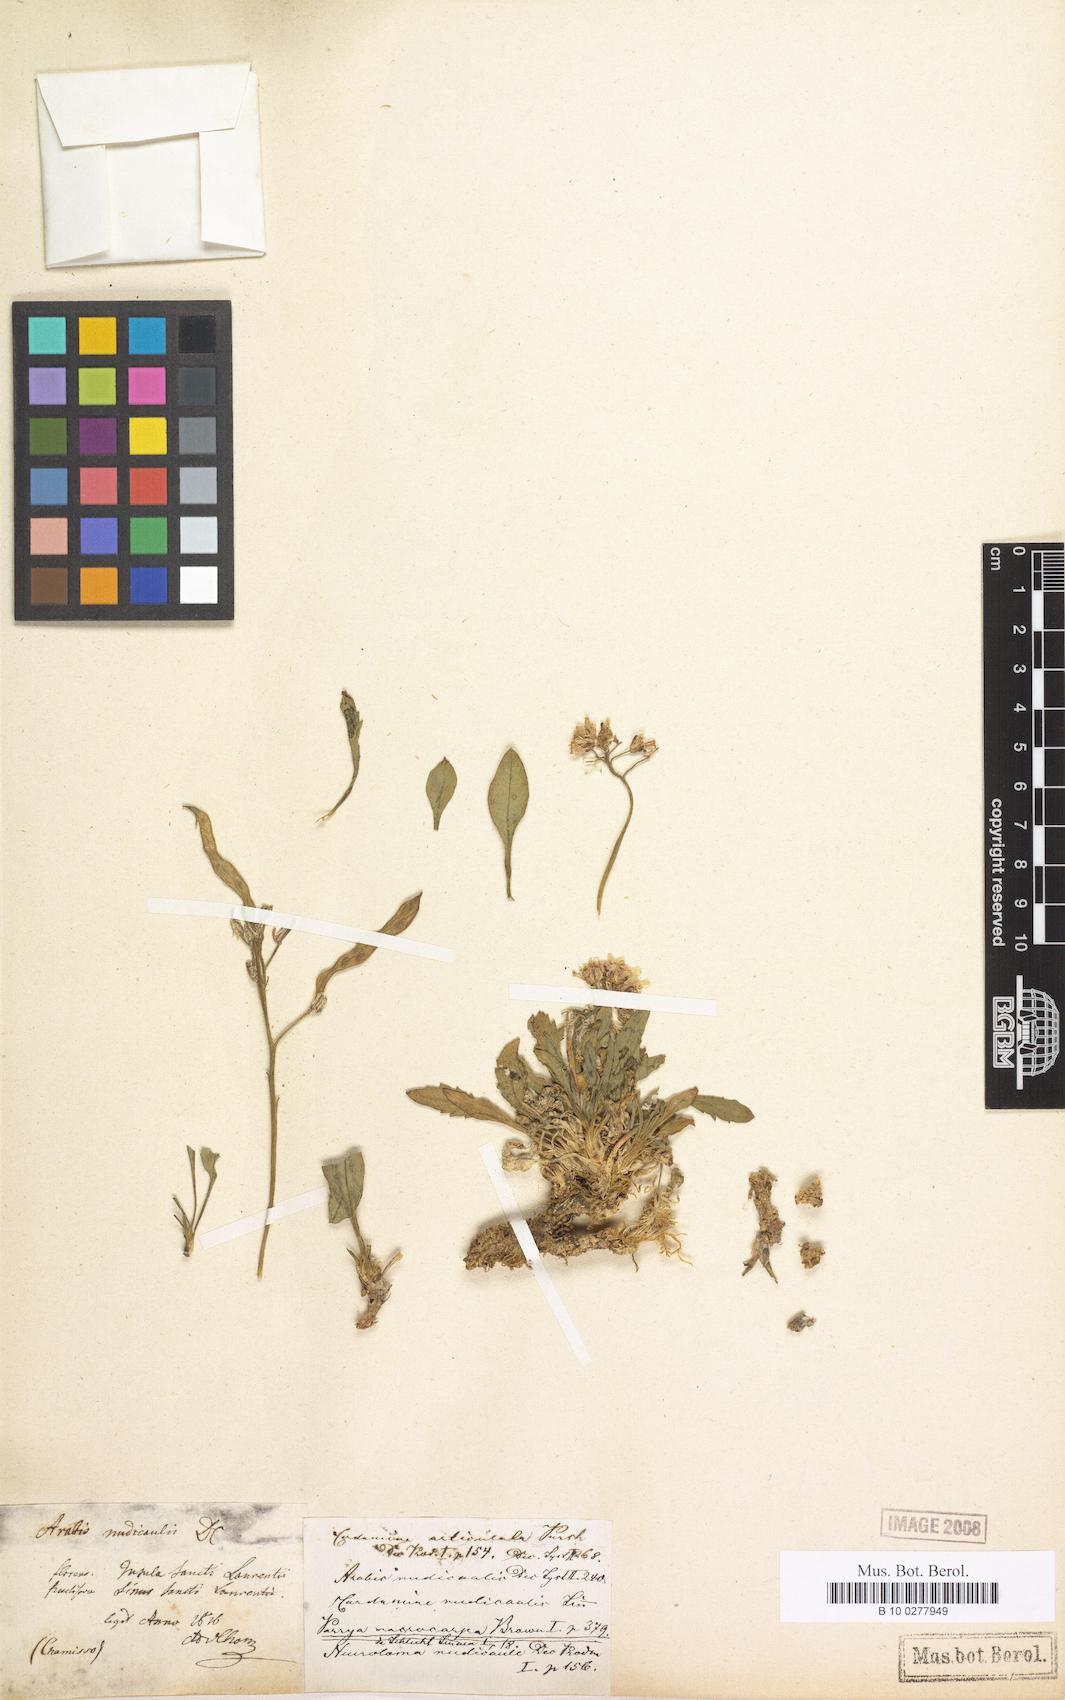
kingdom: Plantae
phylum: Tracheophyta
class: Magnoliopsida
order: Brassicales
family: Brassicaceae
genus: Parrya
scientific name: Parrya nudicaulis
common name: Naked-stemmed false wallflower
